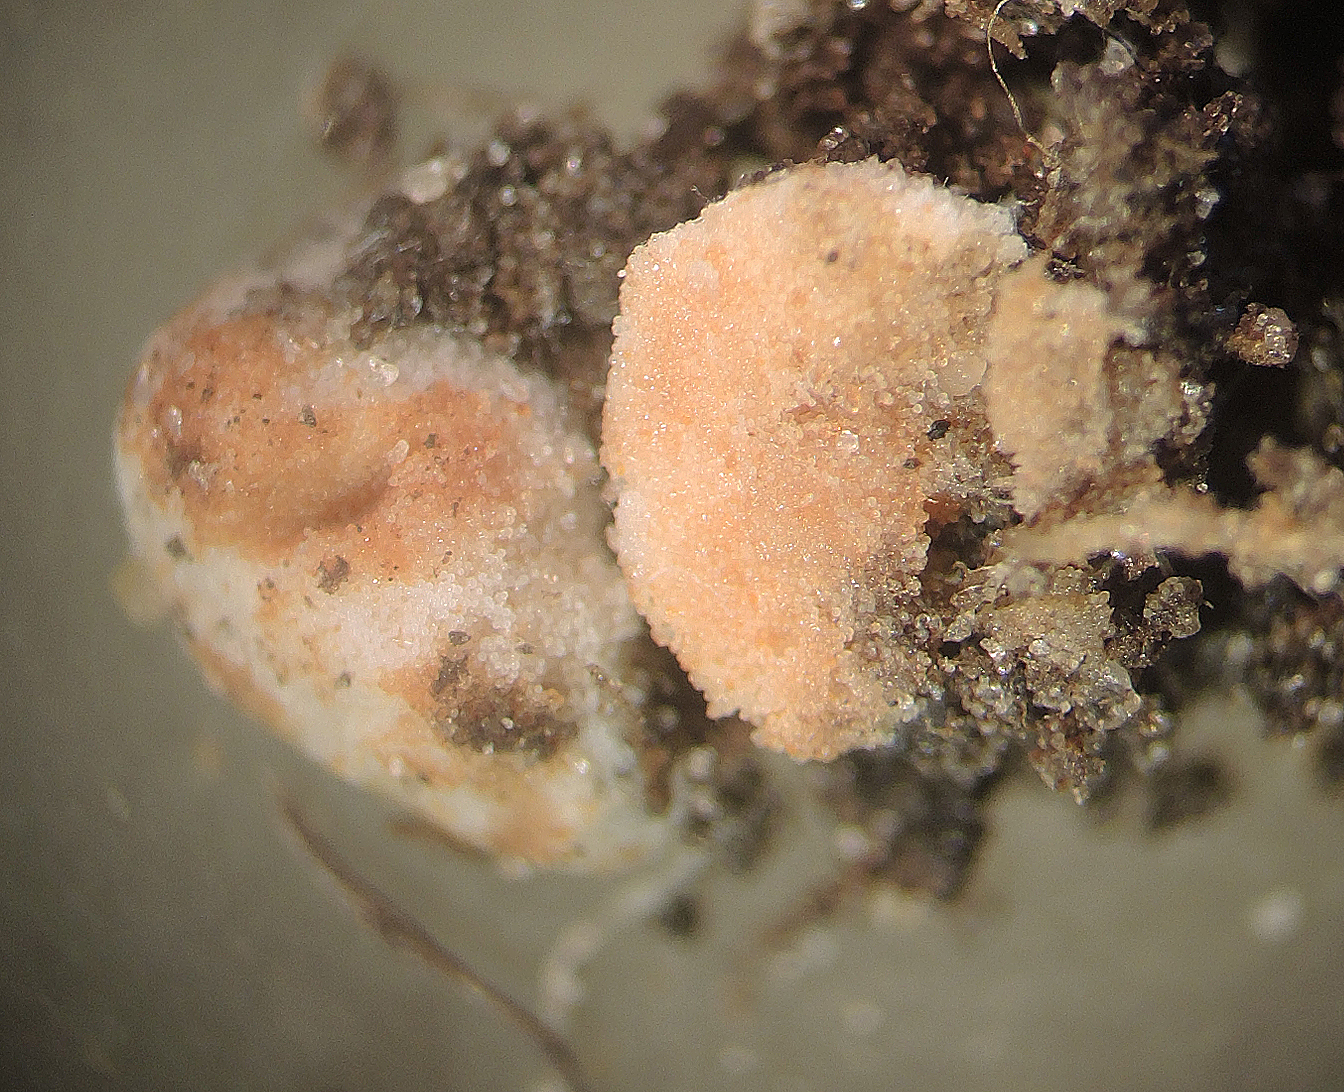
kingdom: Fungi
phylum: Glomeromycota
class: Glomeromycetes
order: Glomerales
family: Glomeraceae
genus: Glomus
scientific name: Glomus
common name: arbuskelsvamp
